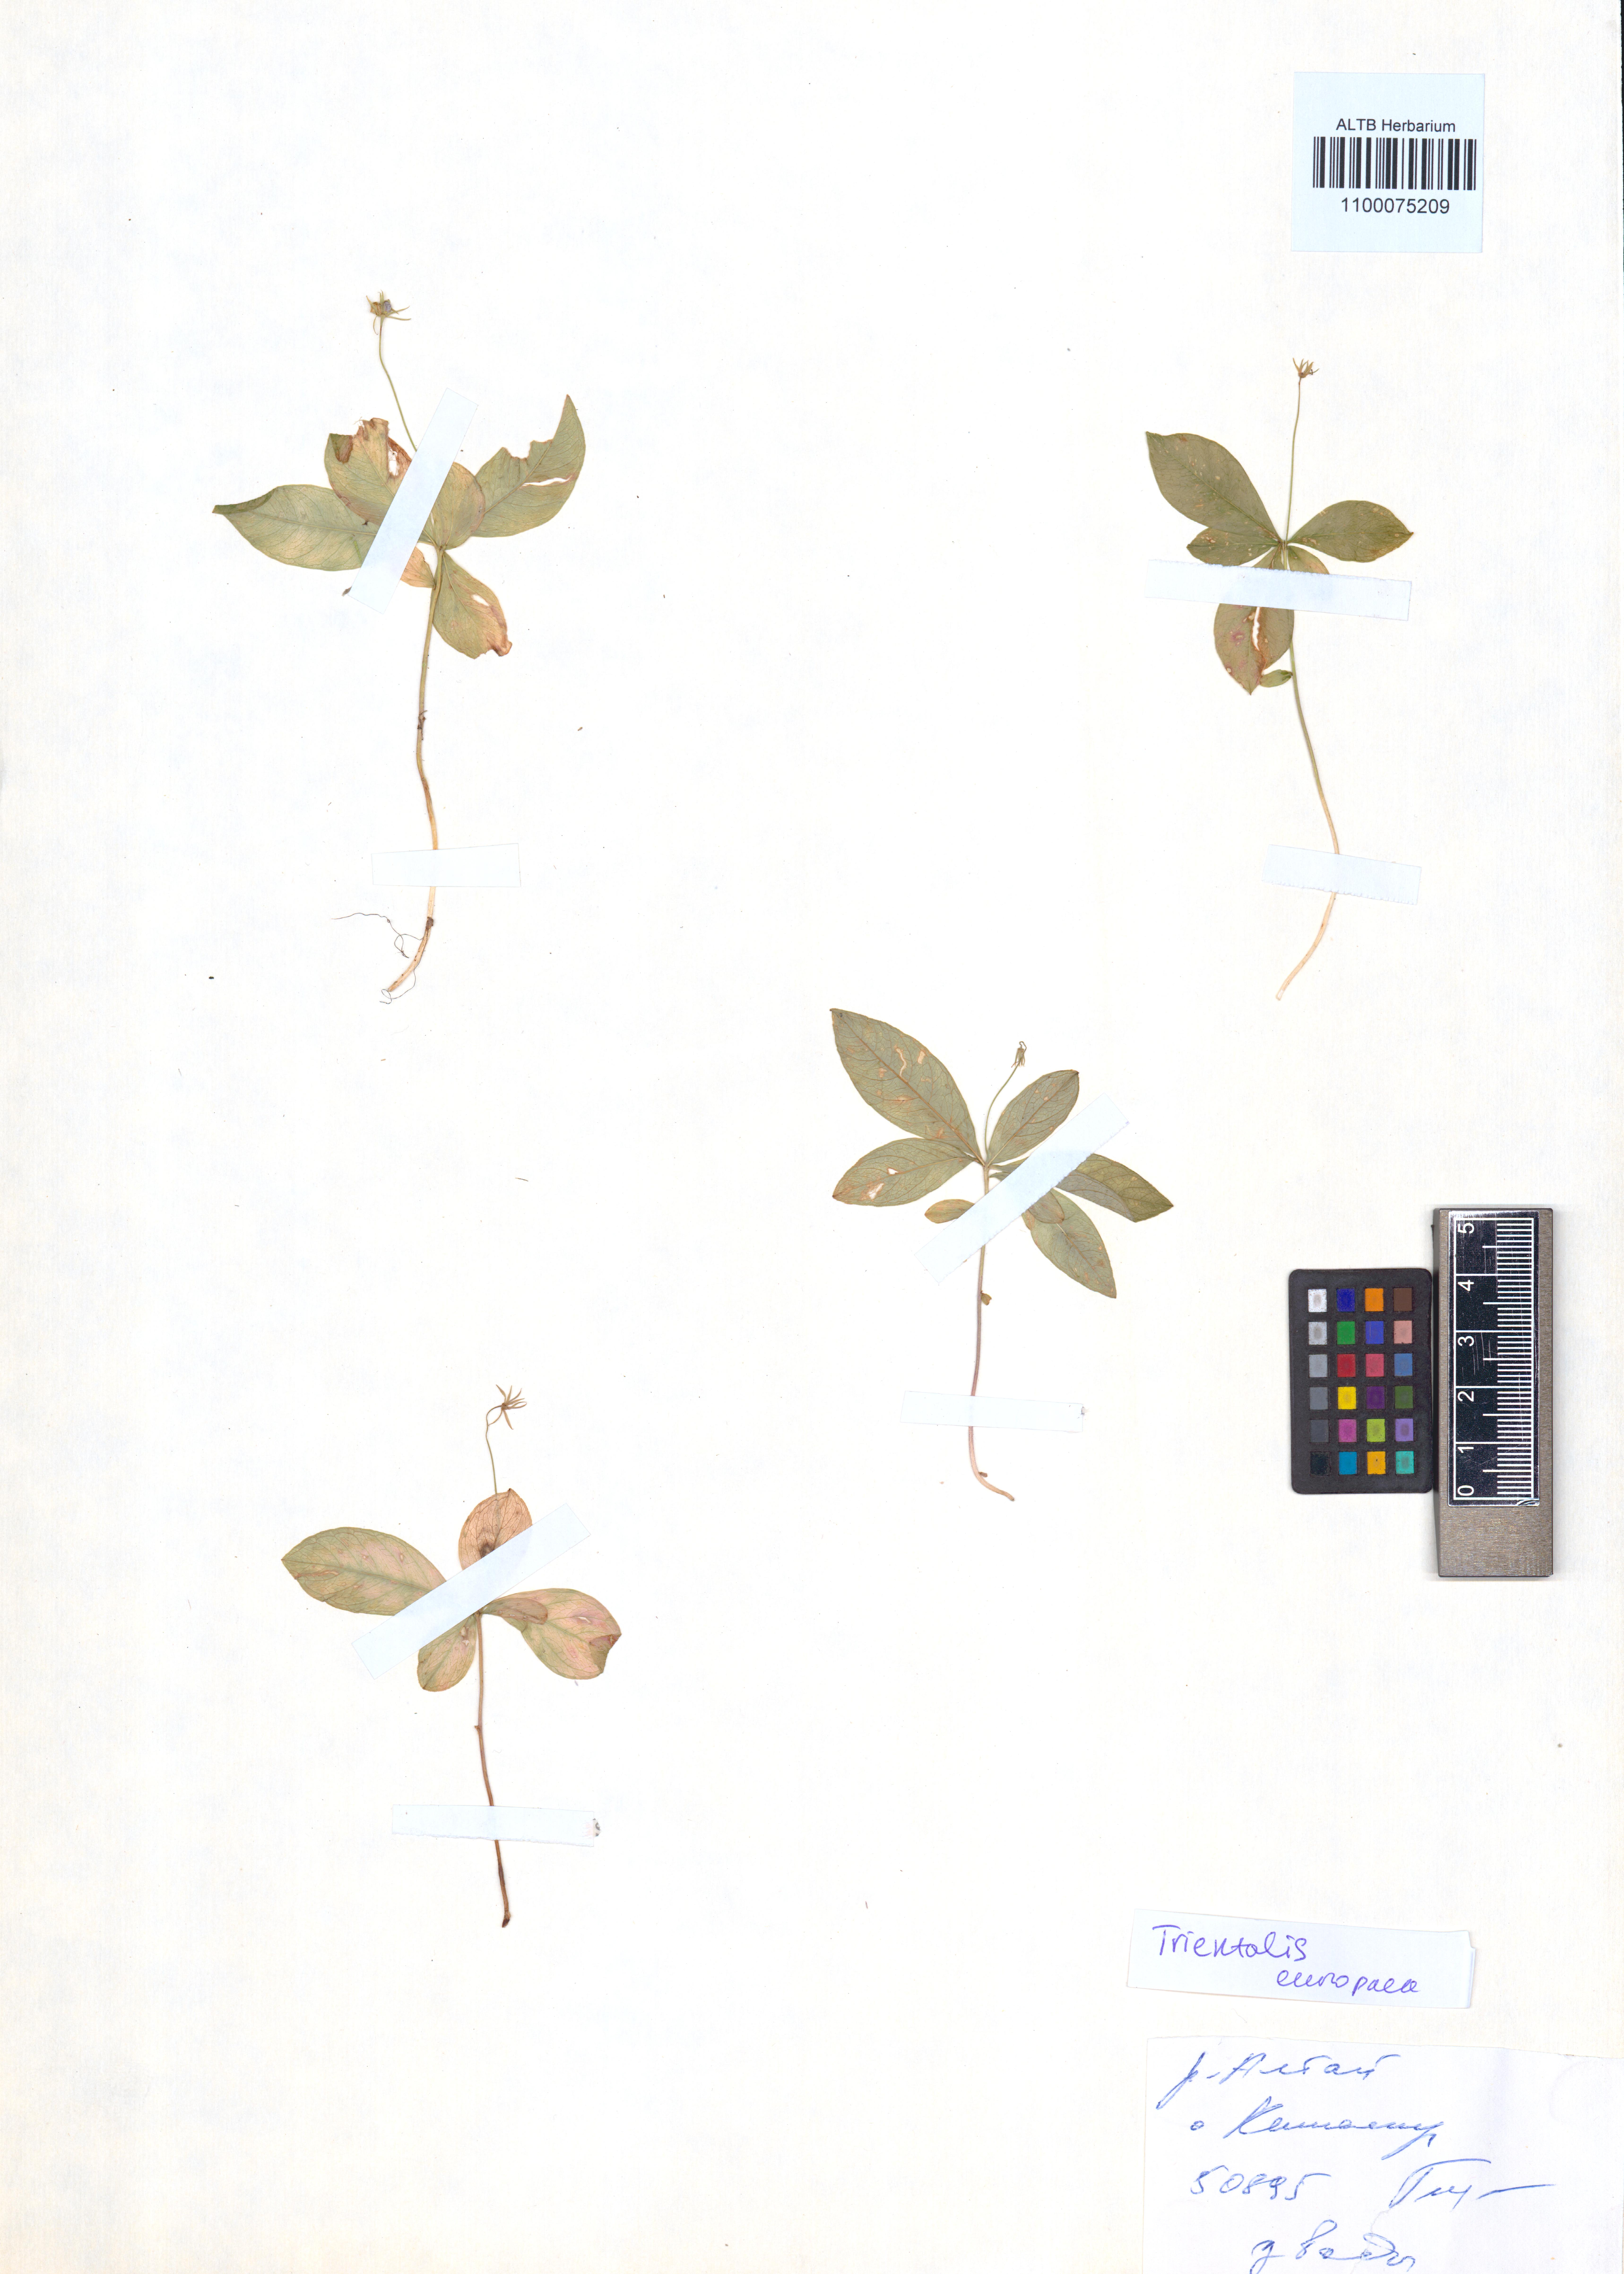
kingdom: Plantae
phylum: Tracheophyta
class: Magnoliopsida
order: Ericales
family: Primulaceae
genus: Lysimachia
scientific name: Lysimachia europaea
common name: Arctic starflower
